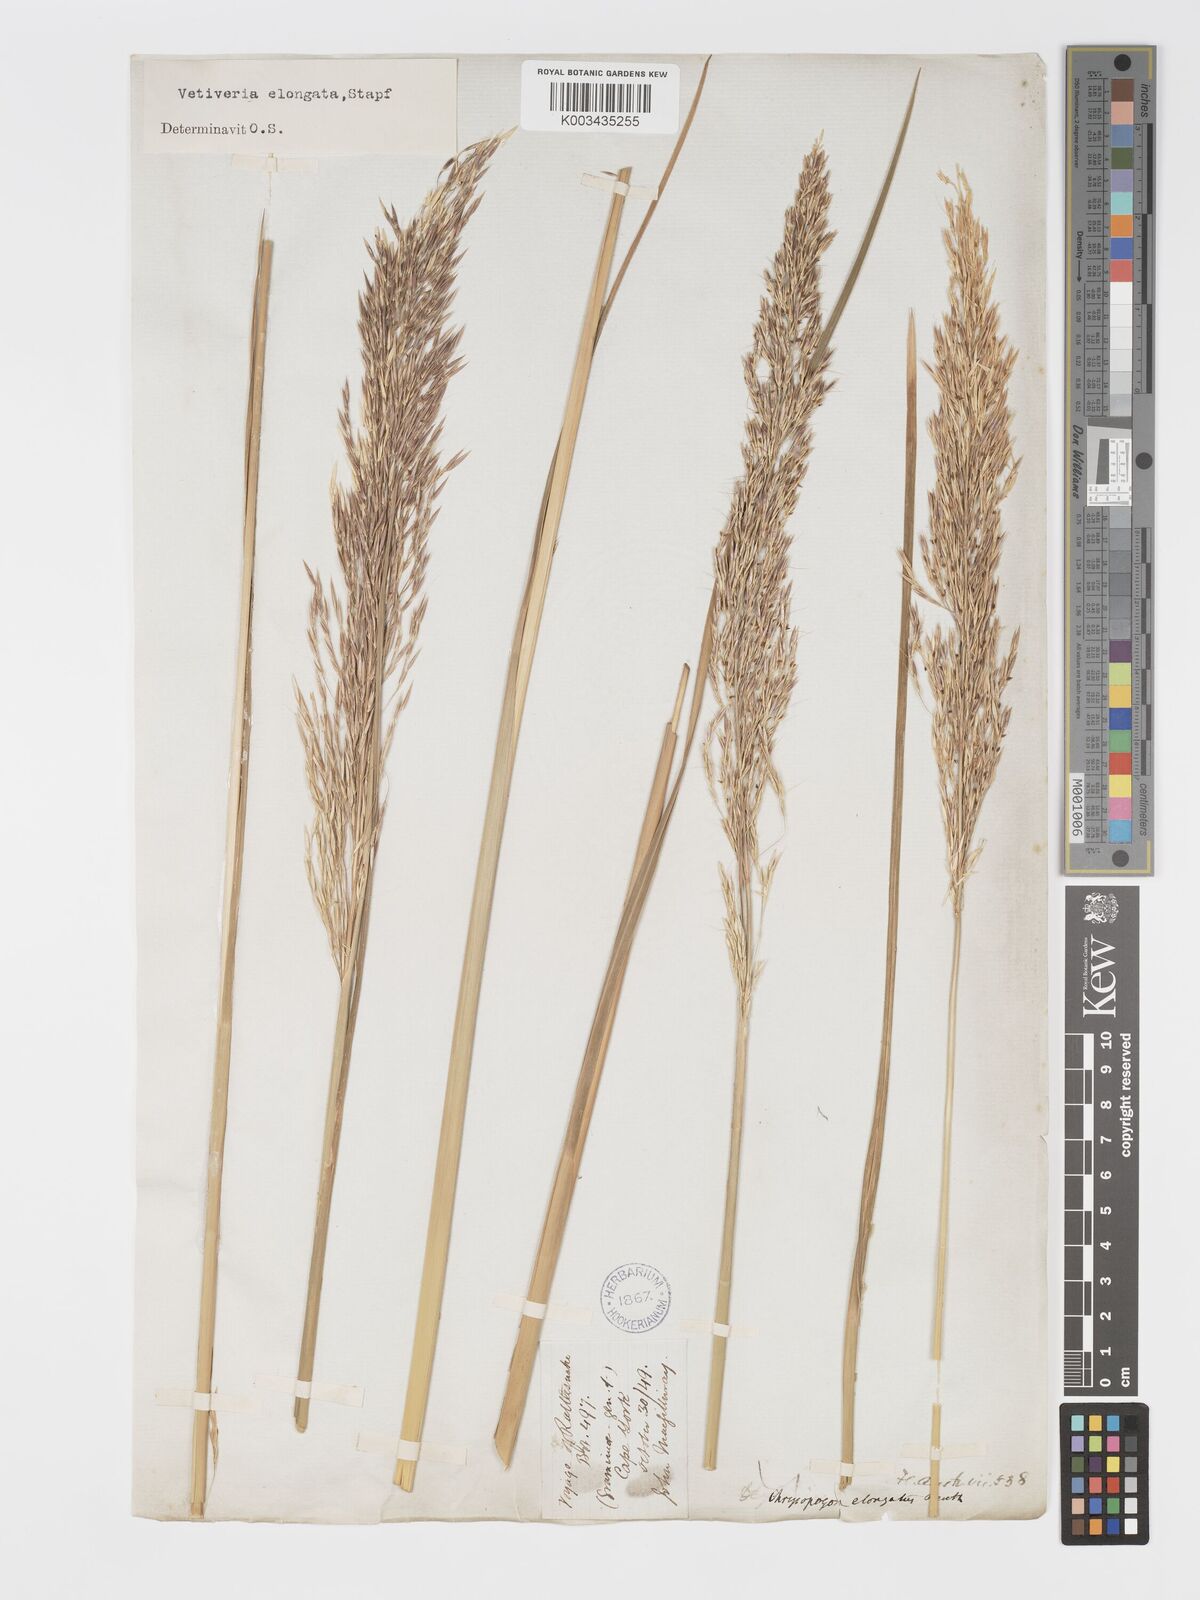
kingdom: Plantae
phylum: Tracheophyta
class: Liliopsida
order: Poales
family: Poaceae
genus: Chrysopogon
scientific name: Chrysopogon elongatus
